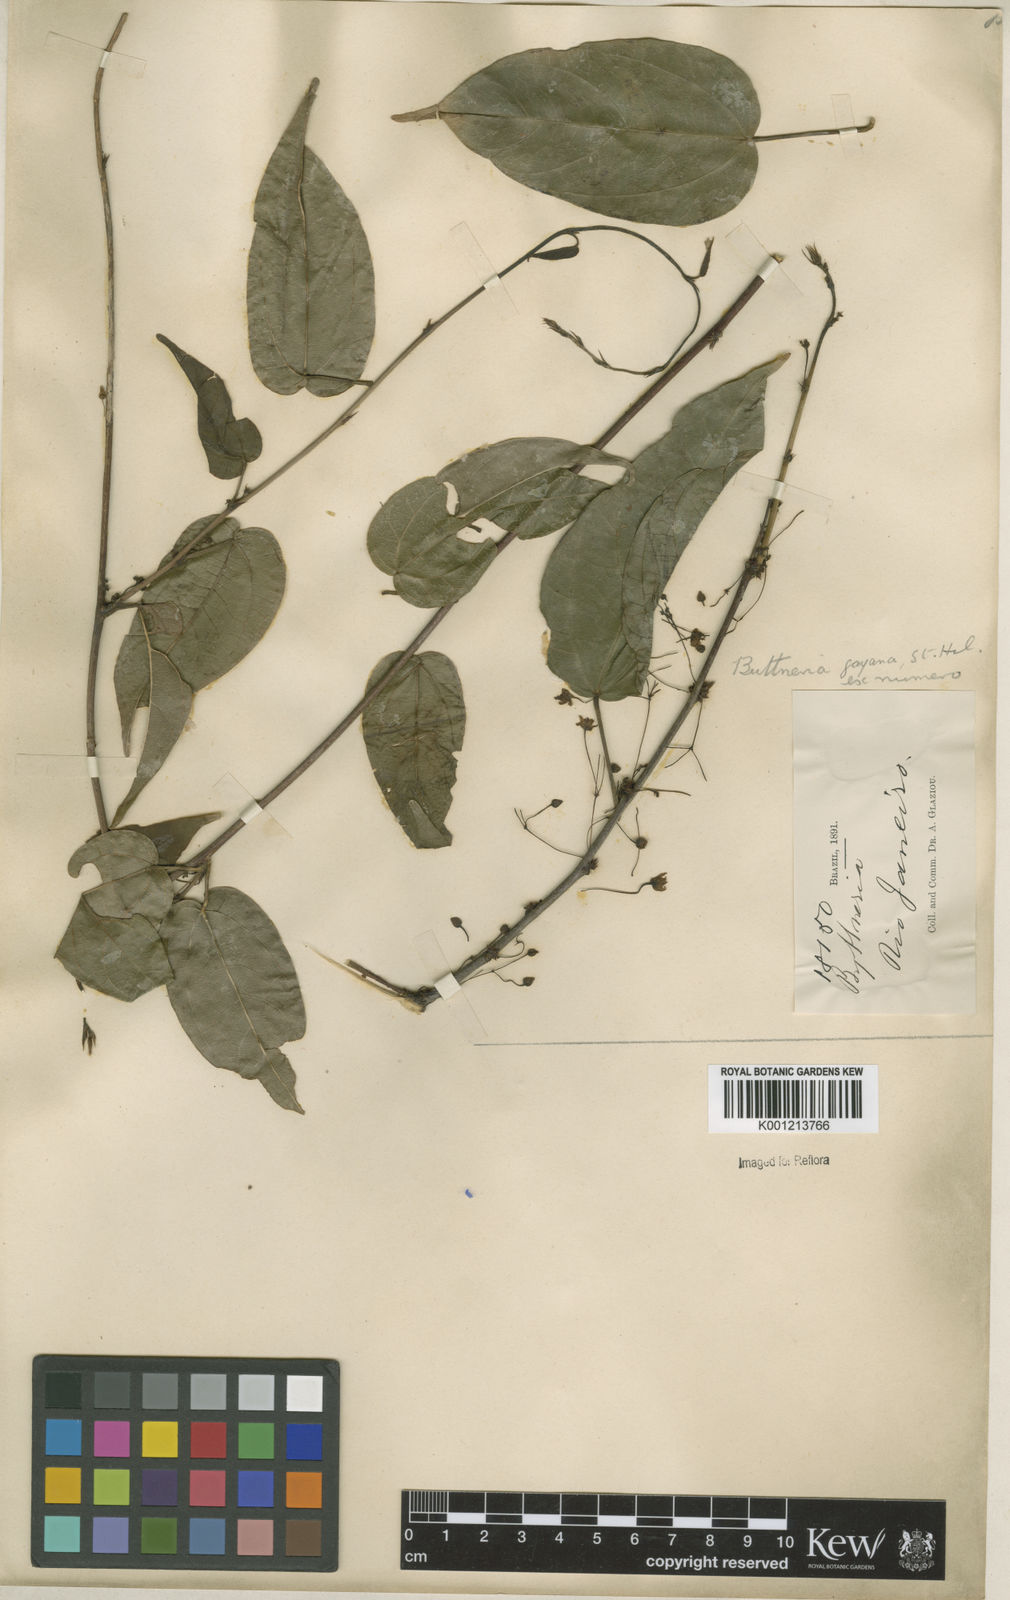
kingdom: Plantae
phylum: Tracheophyta
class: Magnoliopsida
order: Malvales
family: Malvaceae
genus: Byttneria
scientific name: Byttneria gayana
